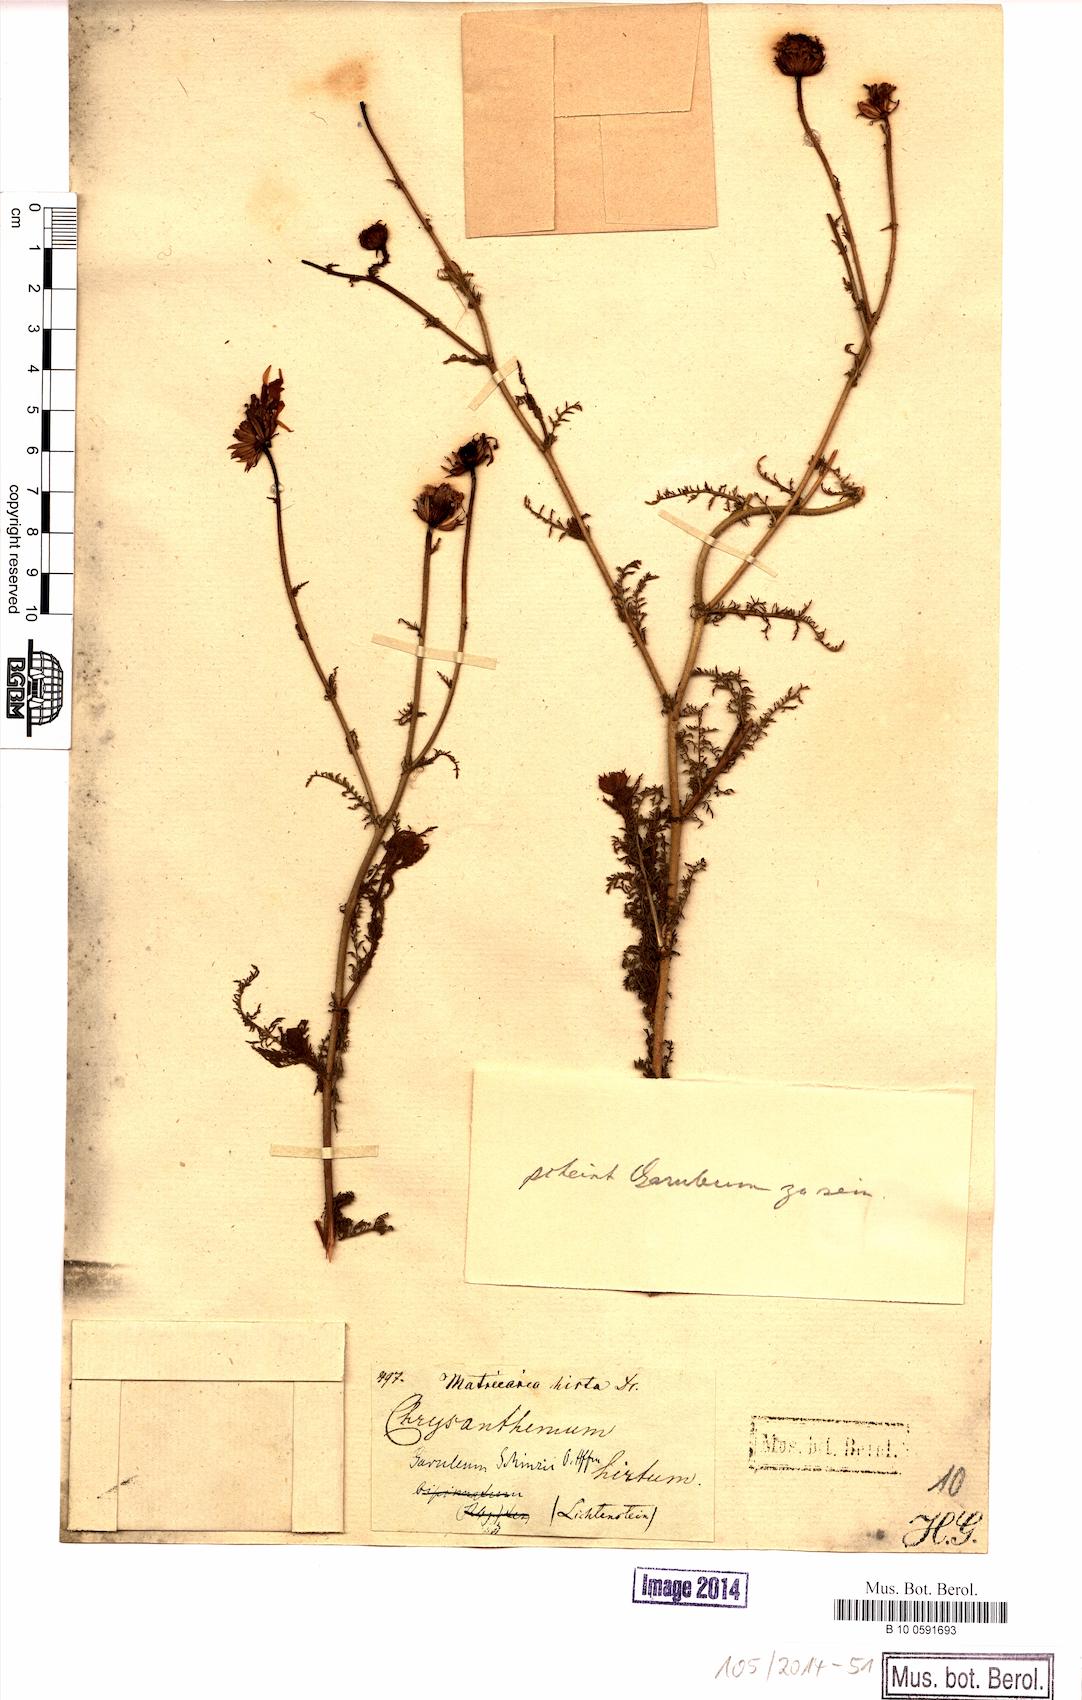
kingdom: Plantae
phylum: Tracheophyta
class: Magnoliopsida
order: Asterales
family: Asteraceae
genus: Garuleum
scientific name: Garuleum schinzii
